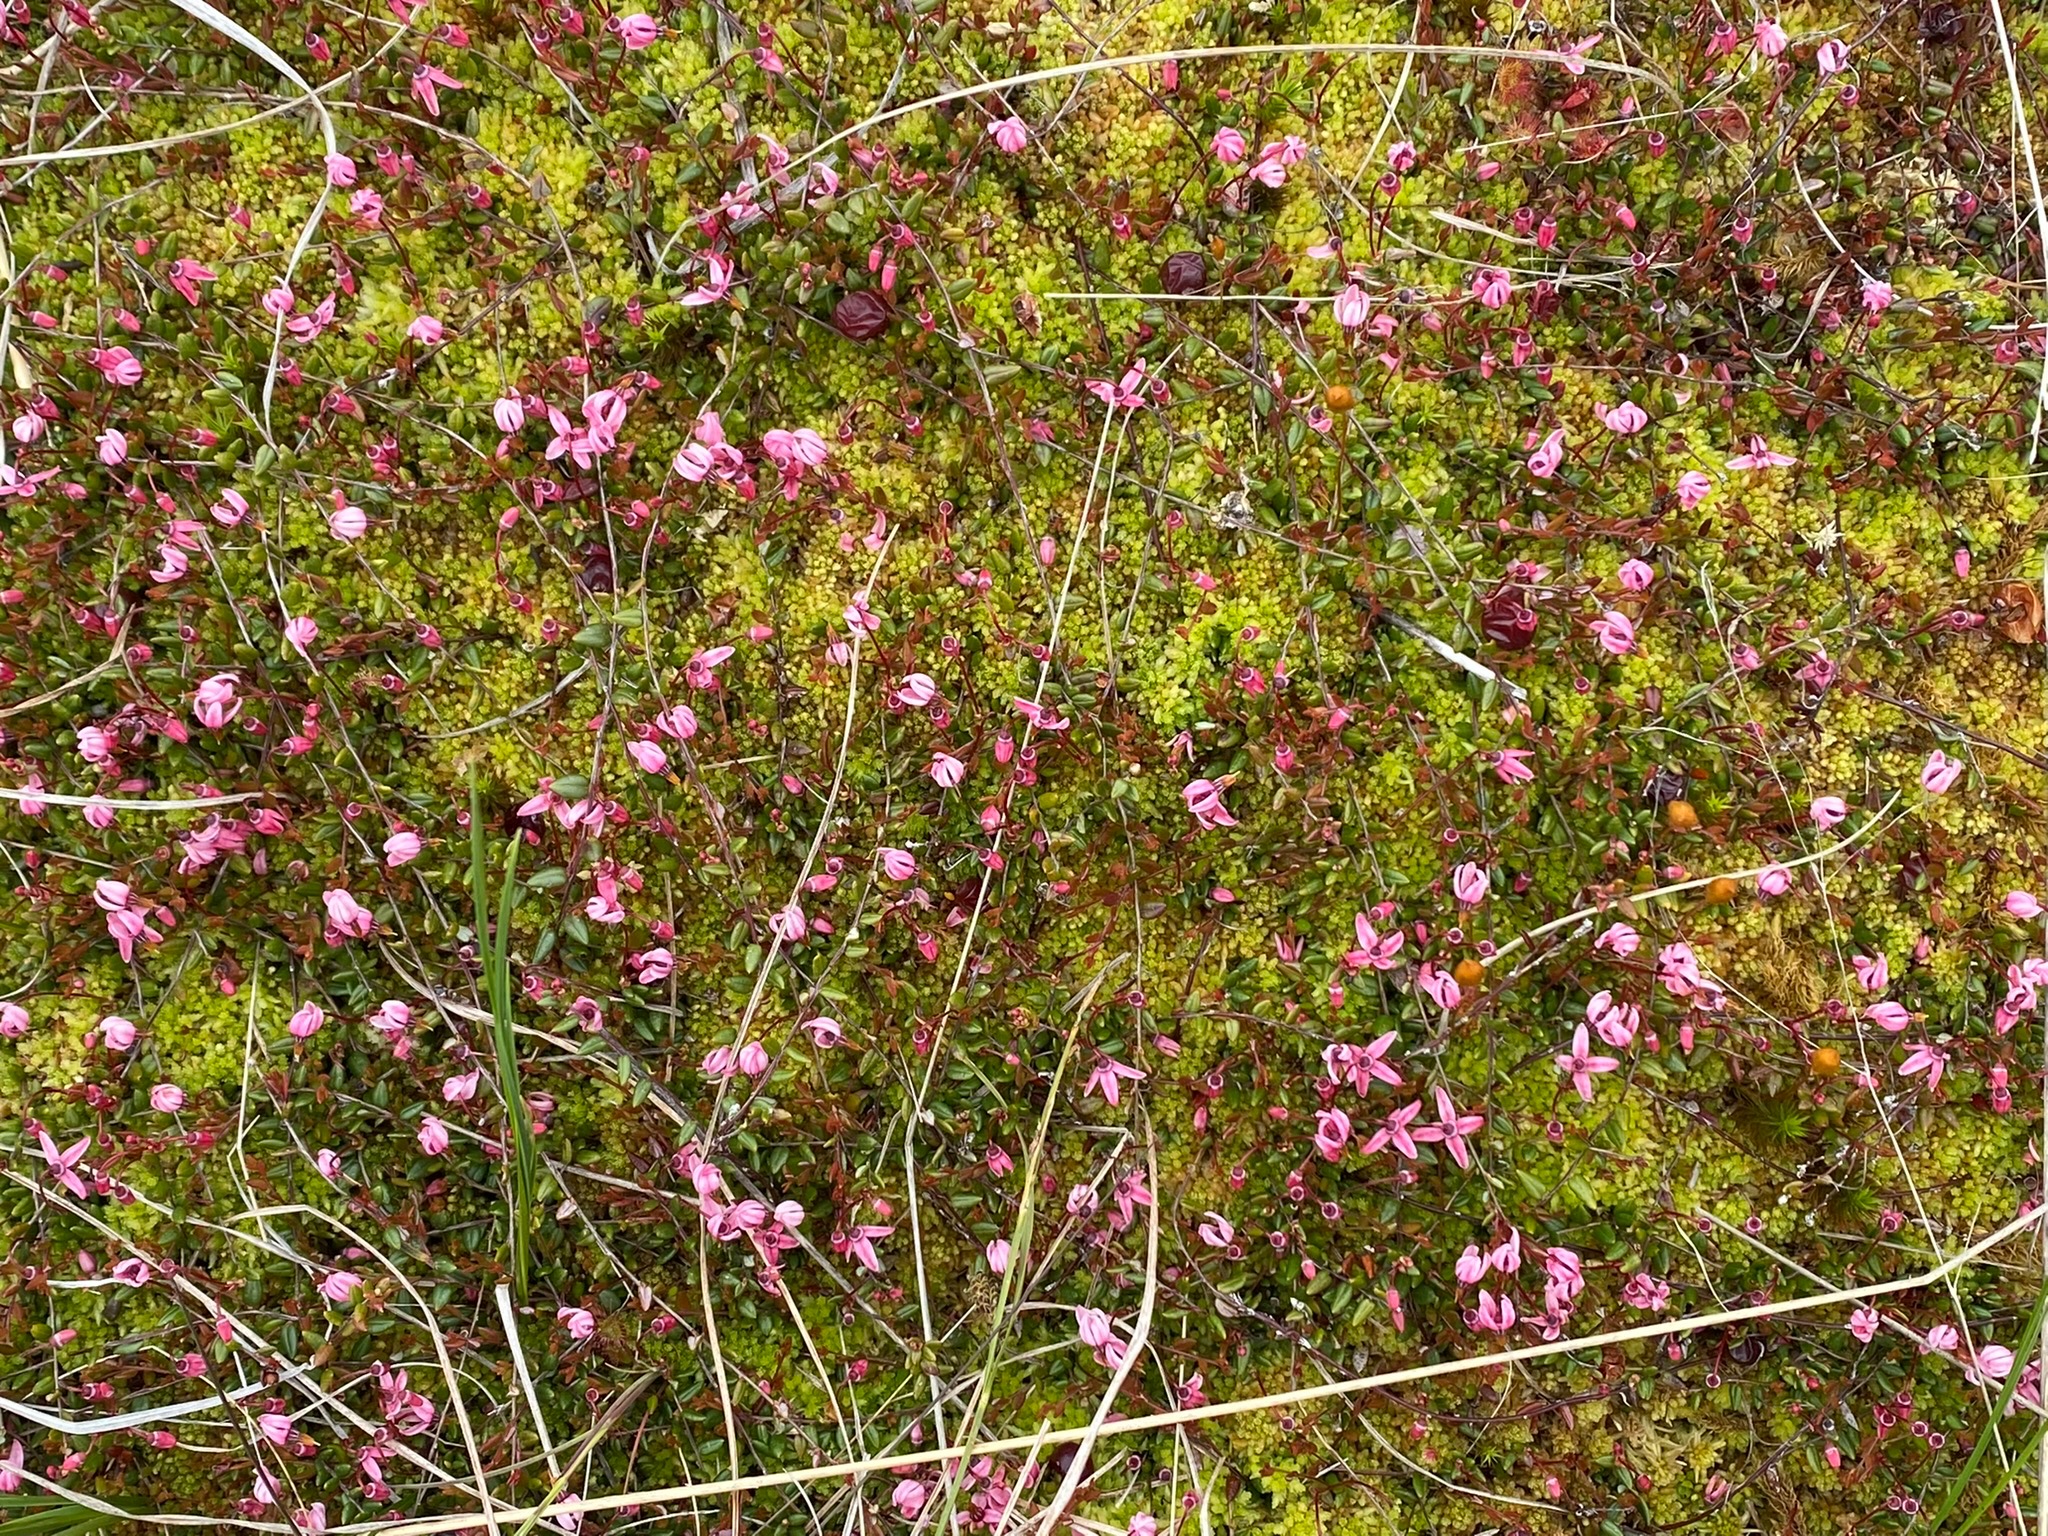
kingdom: Plantae
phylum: Tracheophyta
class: Magnoliopsida
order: Ericales
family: Ericaceae
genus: Vaccinium
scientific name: Vaccinium oxycoccos
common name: Tranebær
